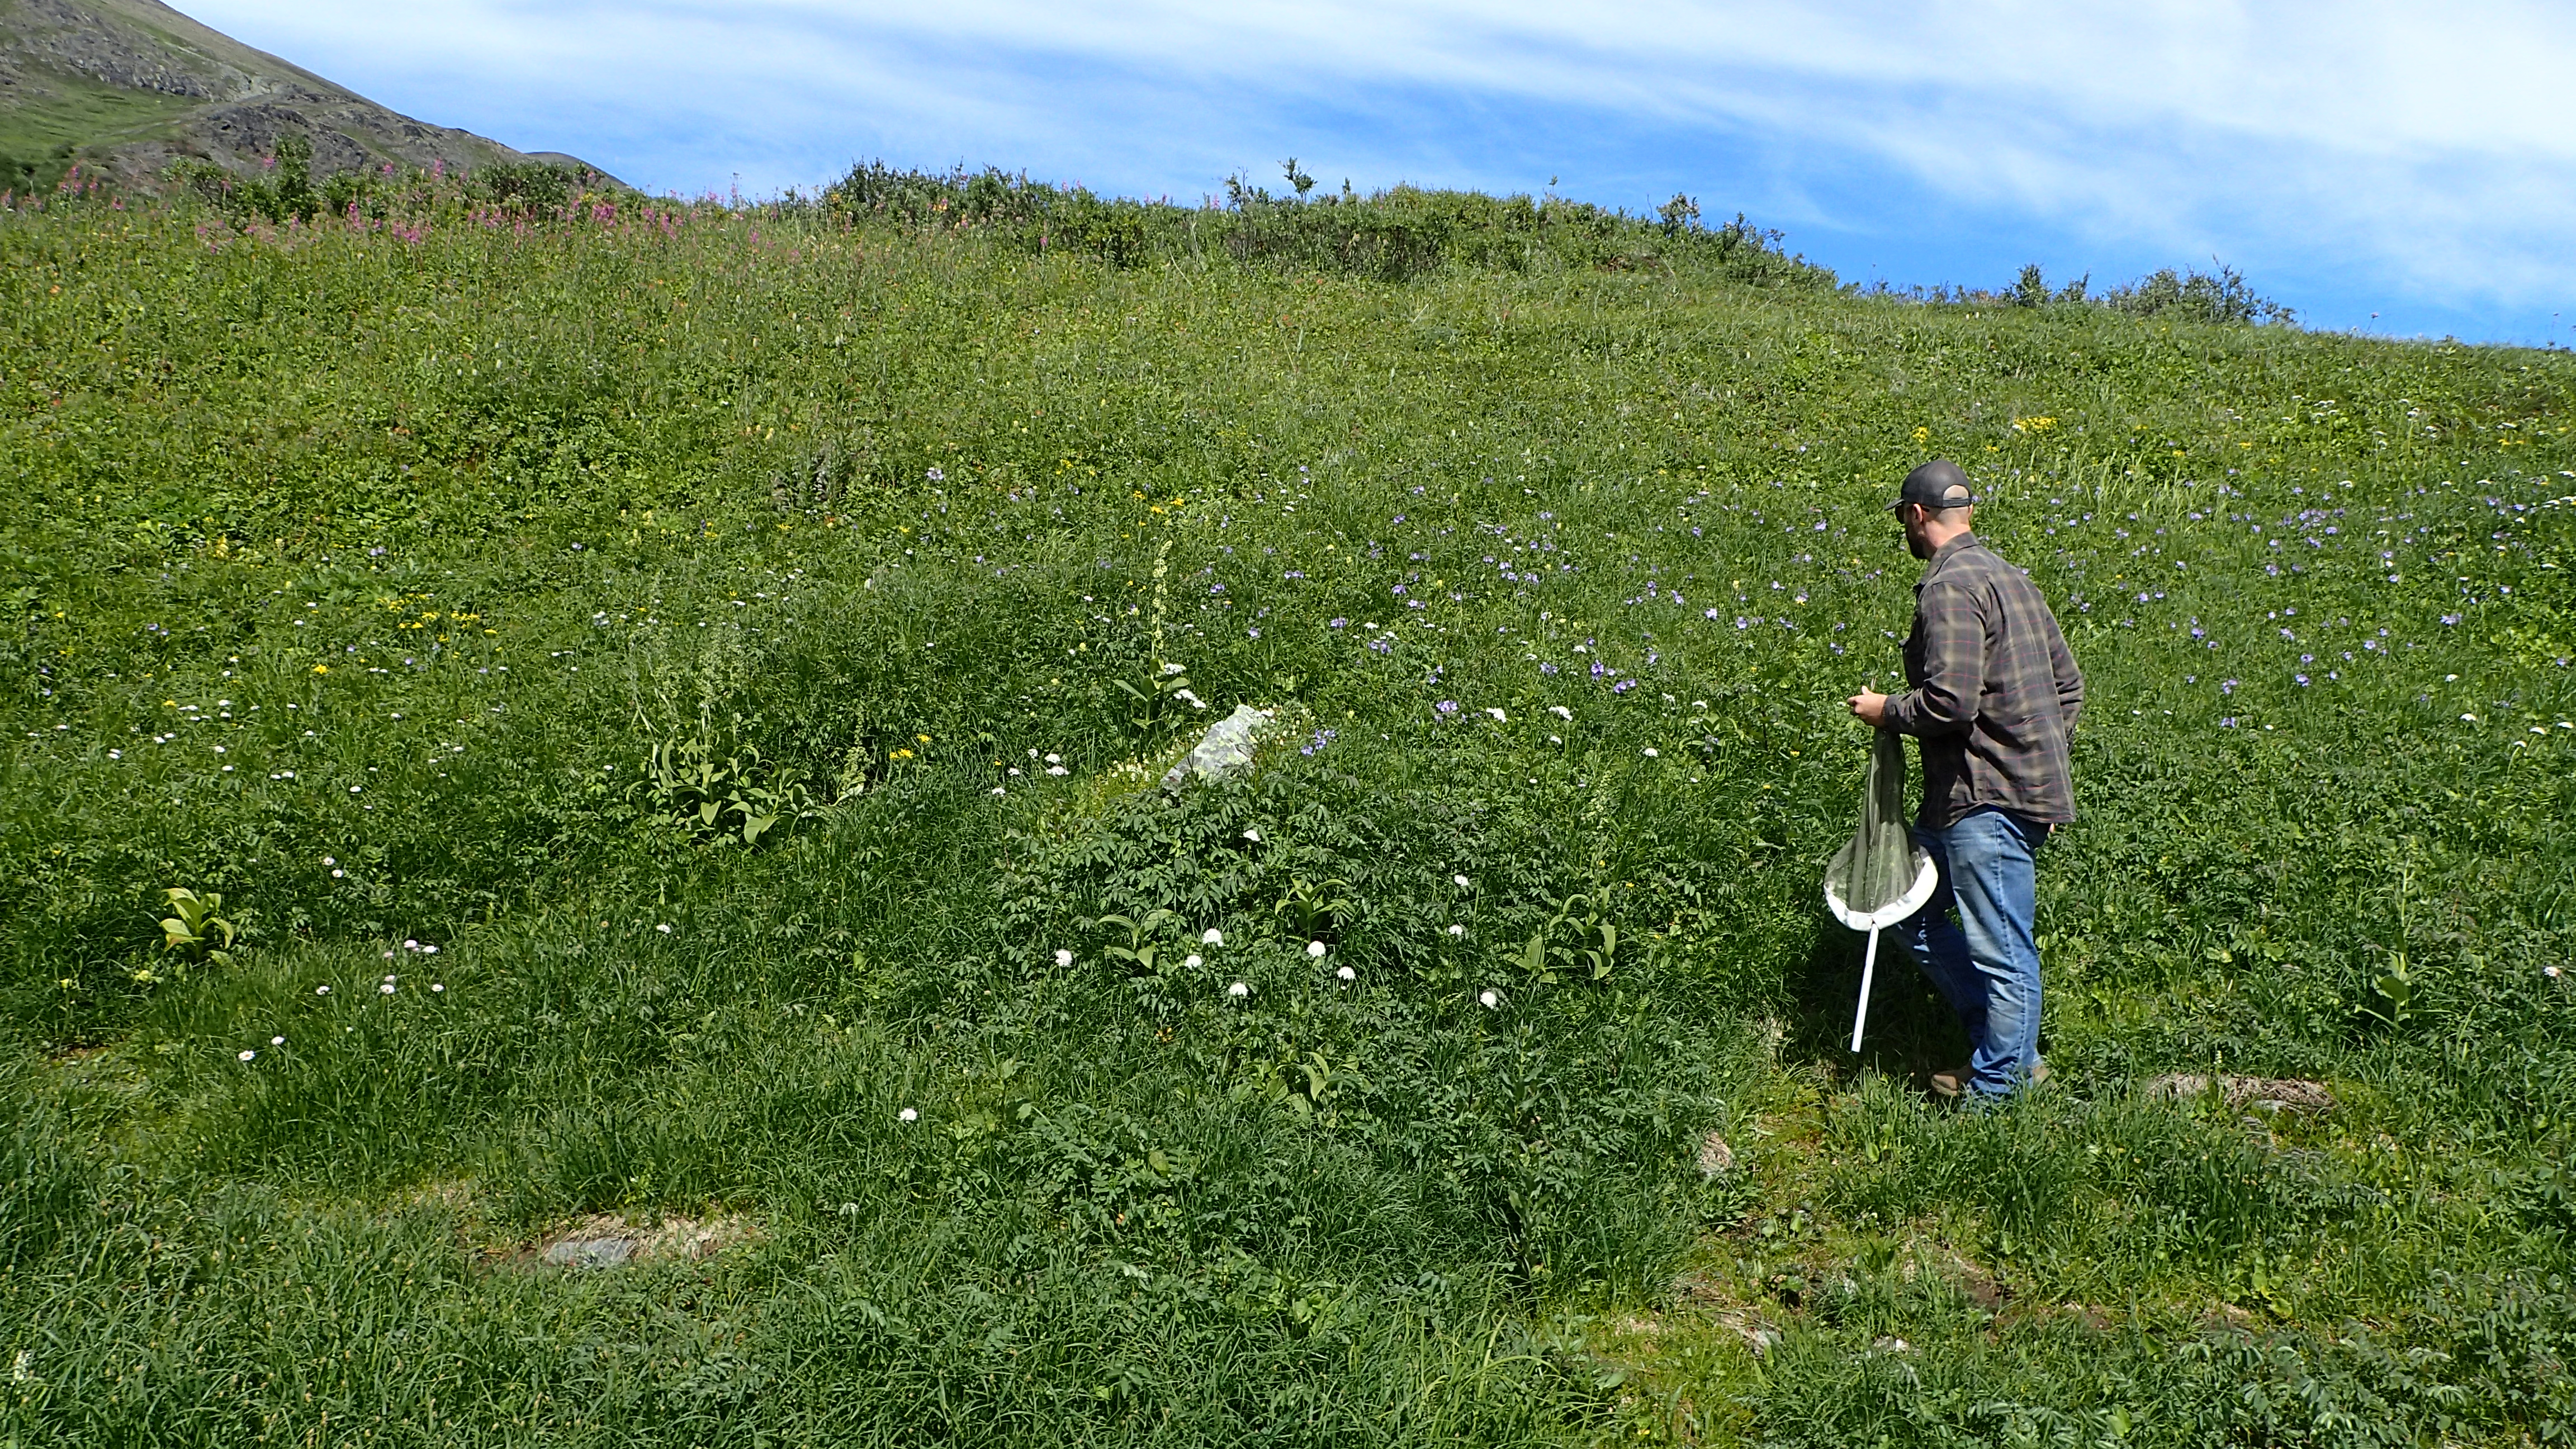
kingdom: Animalia
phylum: Arthropoda
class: Insecta
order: Diptera
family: Muscidae
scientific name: Muscidae
